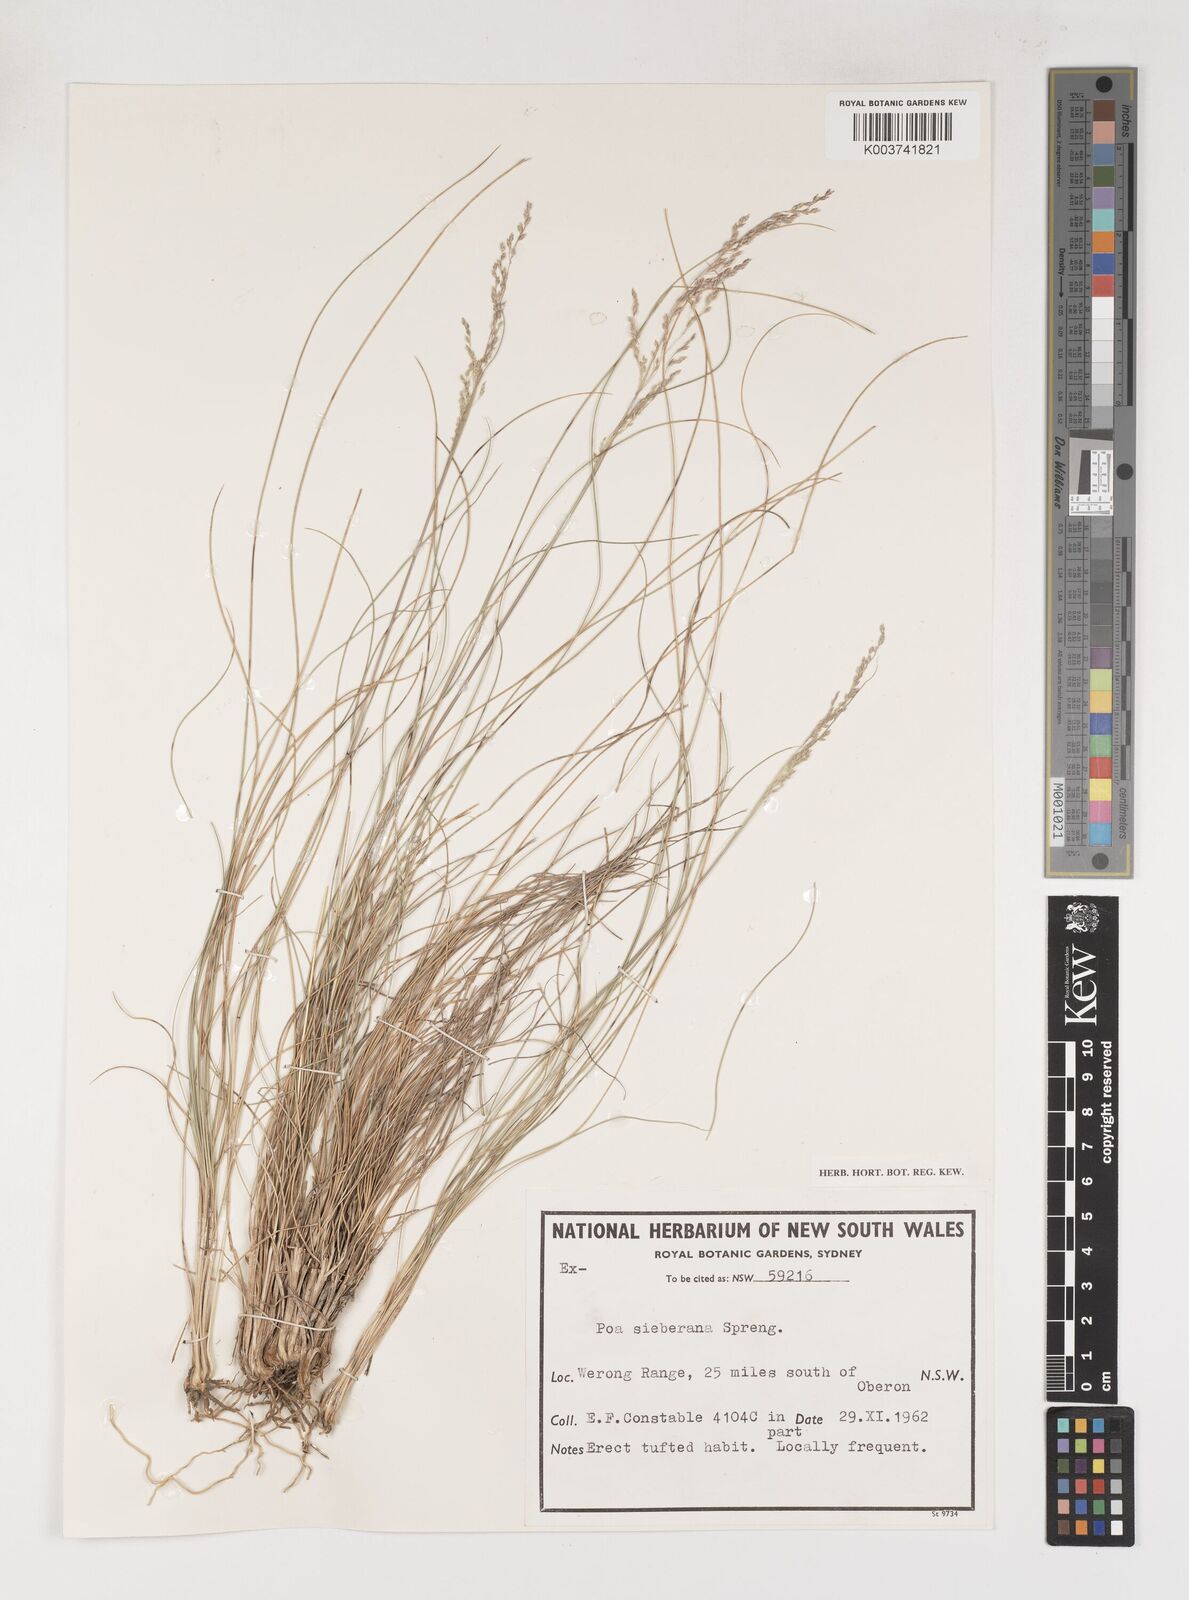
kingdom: Plantae
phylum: Tracheophyta
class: Liliopsida
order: Poales
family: Poaceae
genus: Poa
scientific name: Poa sieberiana
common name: Tussock poa
